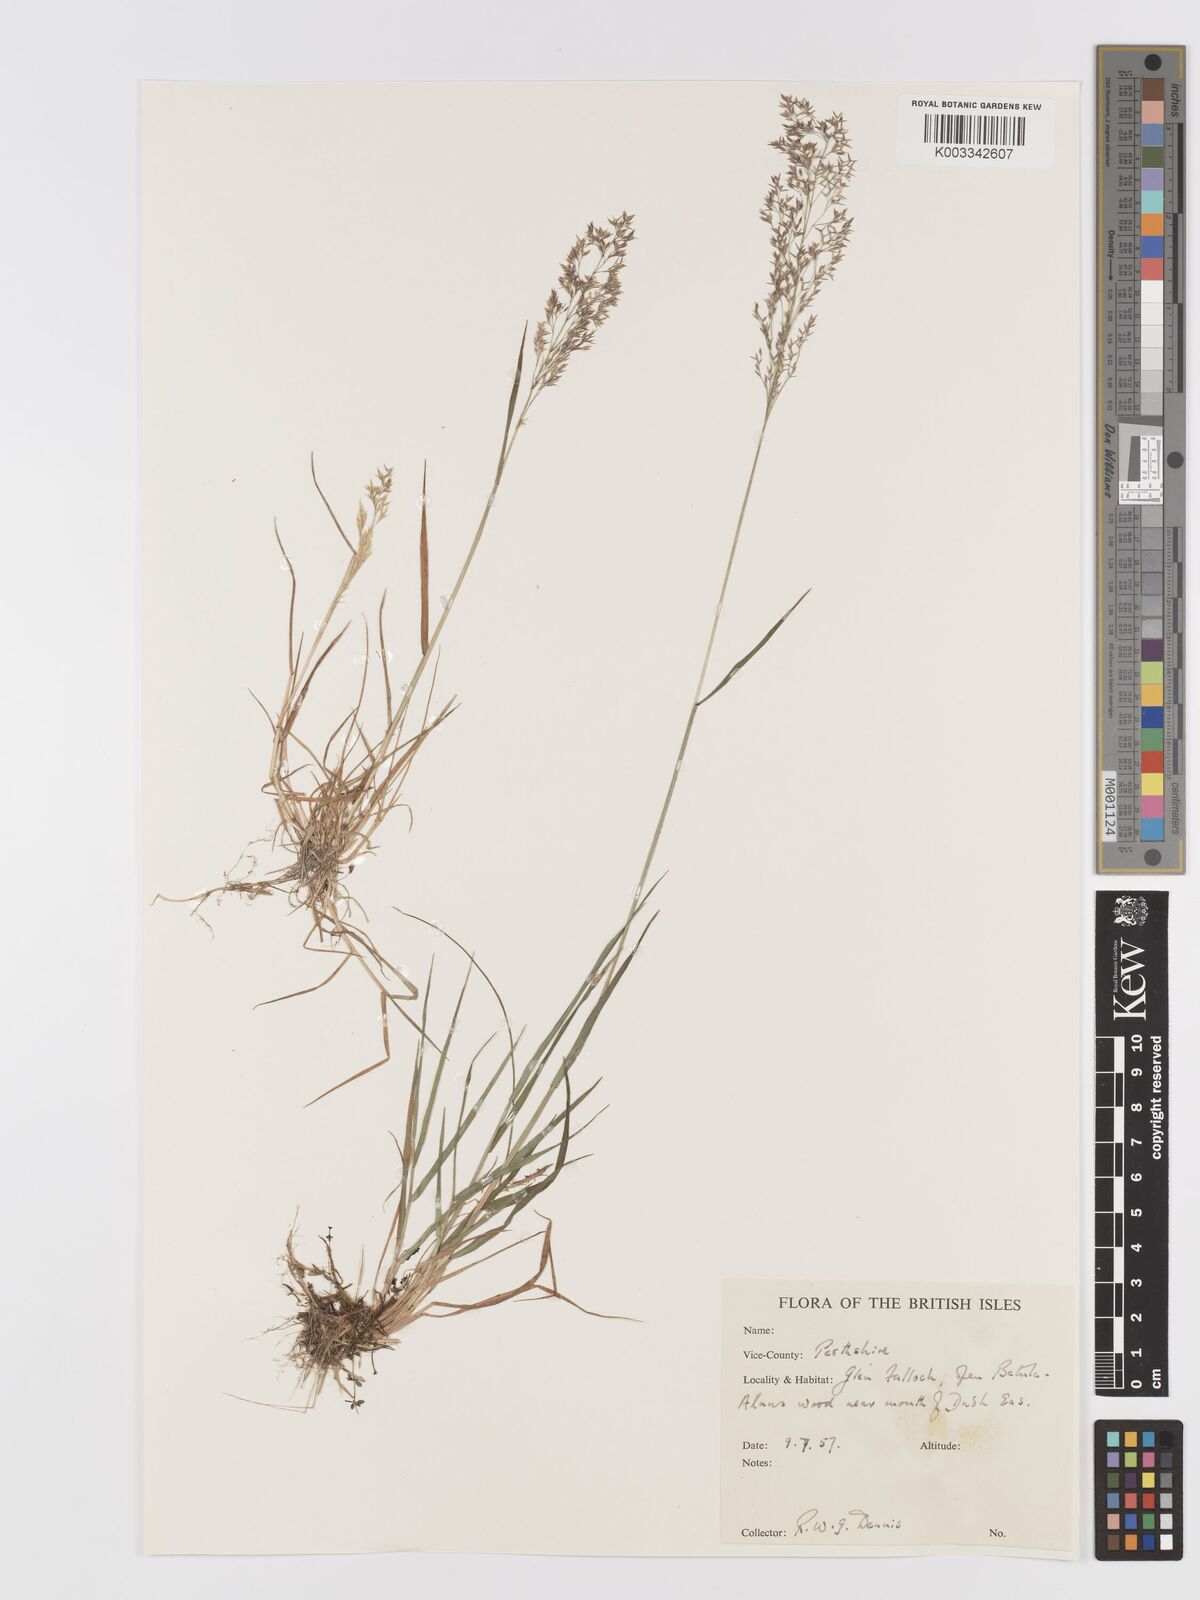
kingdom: Plantae
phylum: Tracheophyta
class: Liliopsida
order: Poales
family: Poaceae
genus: Agrostis
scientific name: Agrostis
